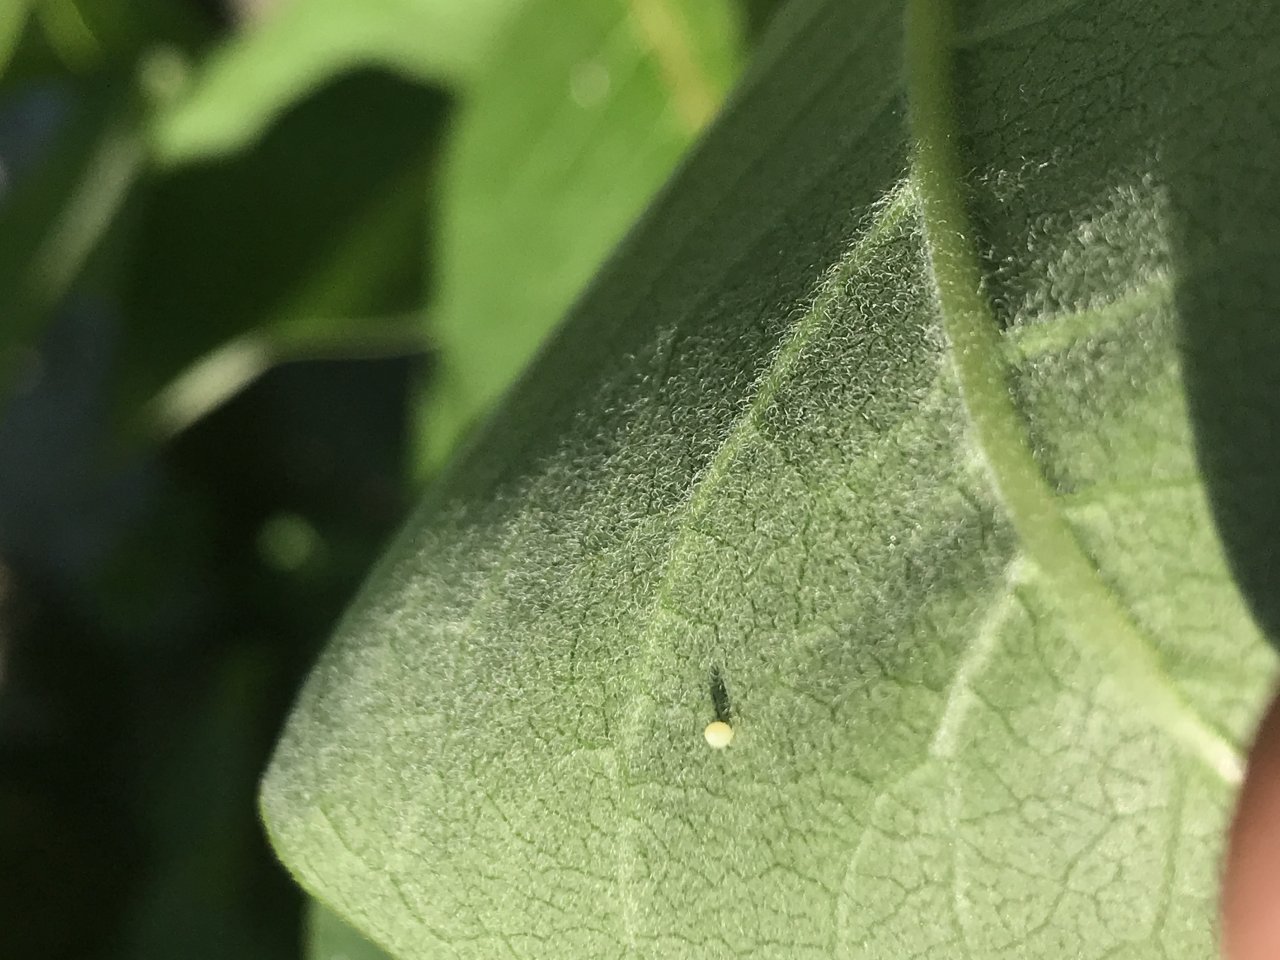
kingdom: Animalia
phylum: Arthropoda
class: Insecta
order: Lepidoptera
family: Nymphalidae
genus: Danaus
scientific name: Danaus plexippus
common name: Monarch
